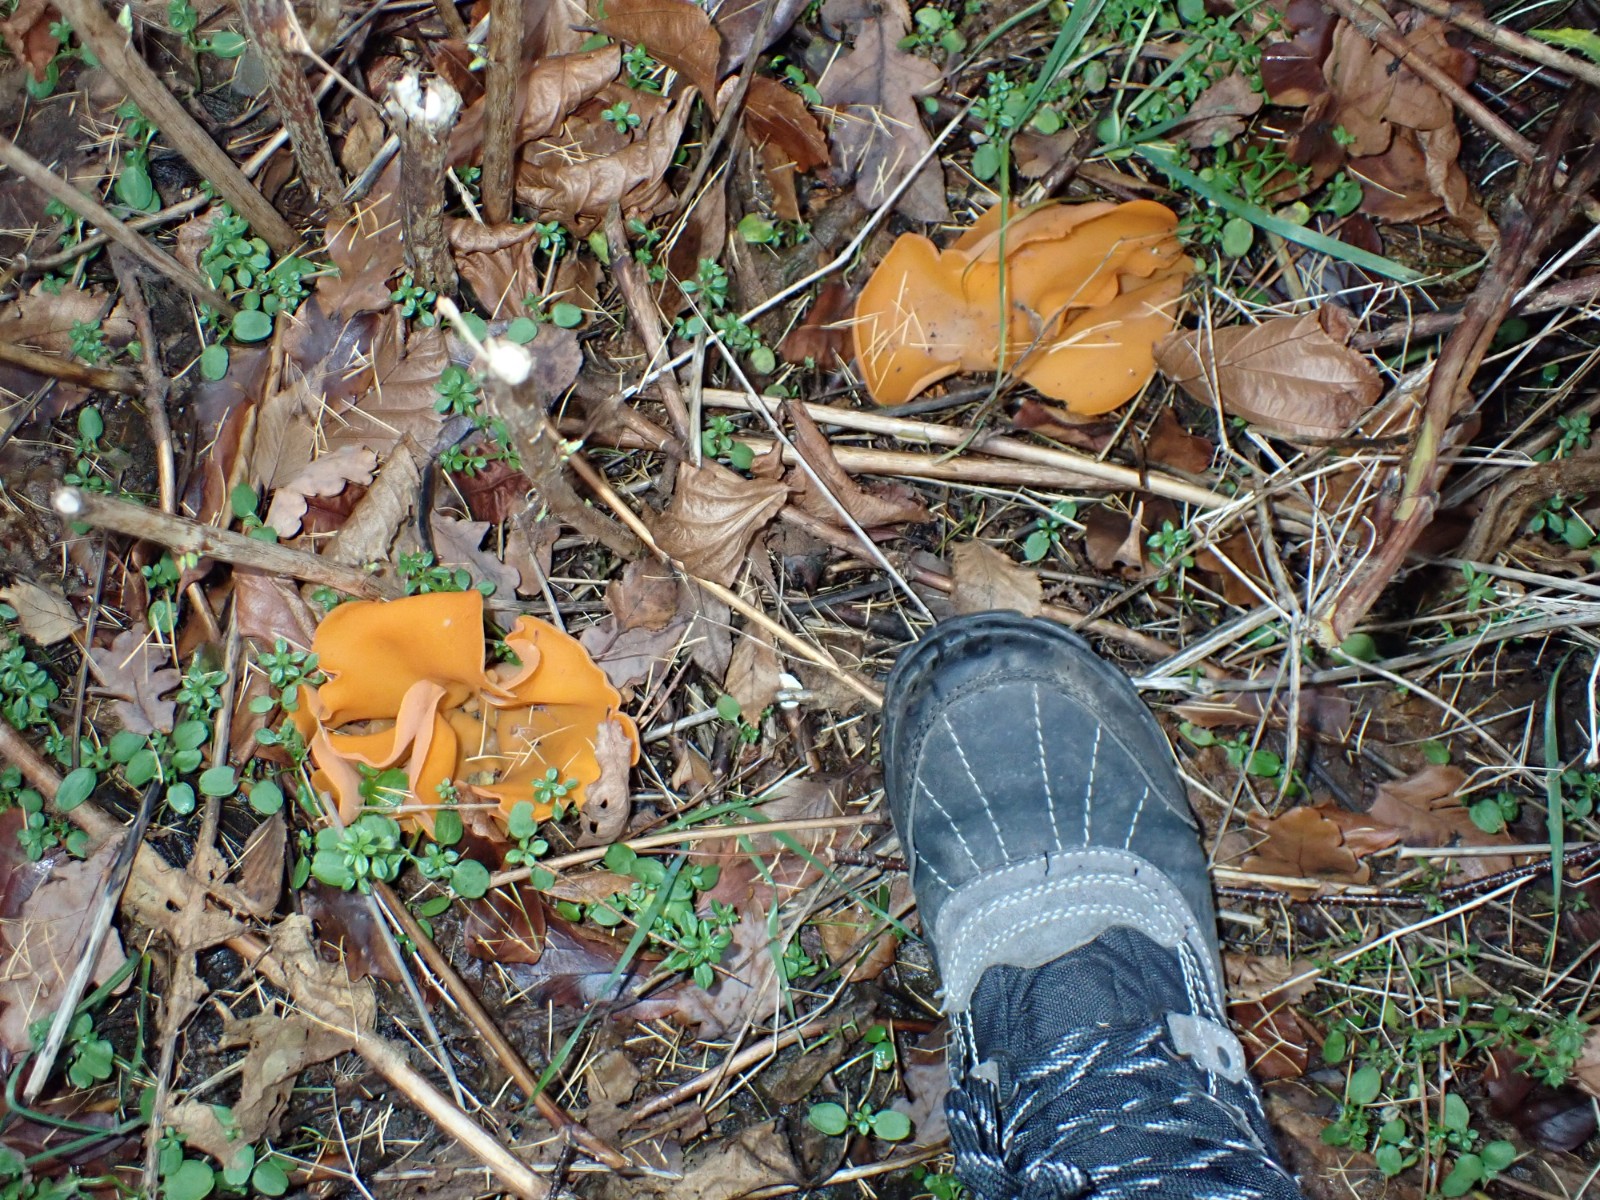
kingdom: Fungi
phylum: Ascomycota
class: Pezizomycetes
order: Pezizales
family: Pyronemataceae
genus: Aleuria
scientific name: Aleuria aurantia
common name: almindelig orangebæger
